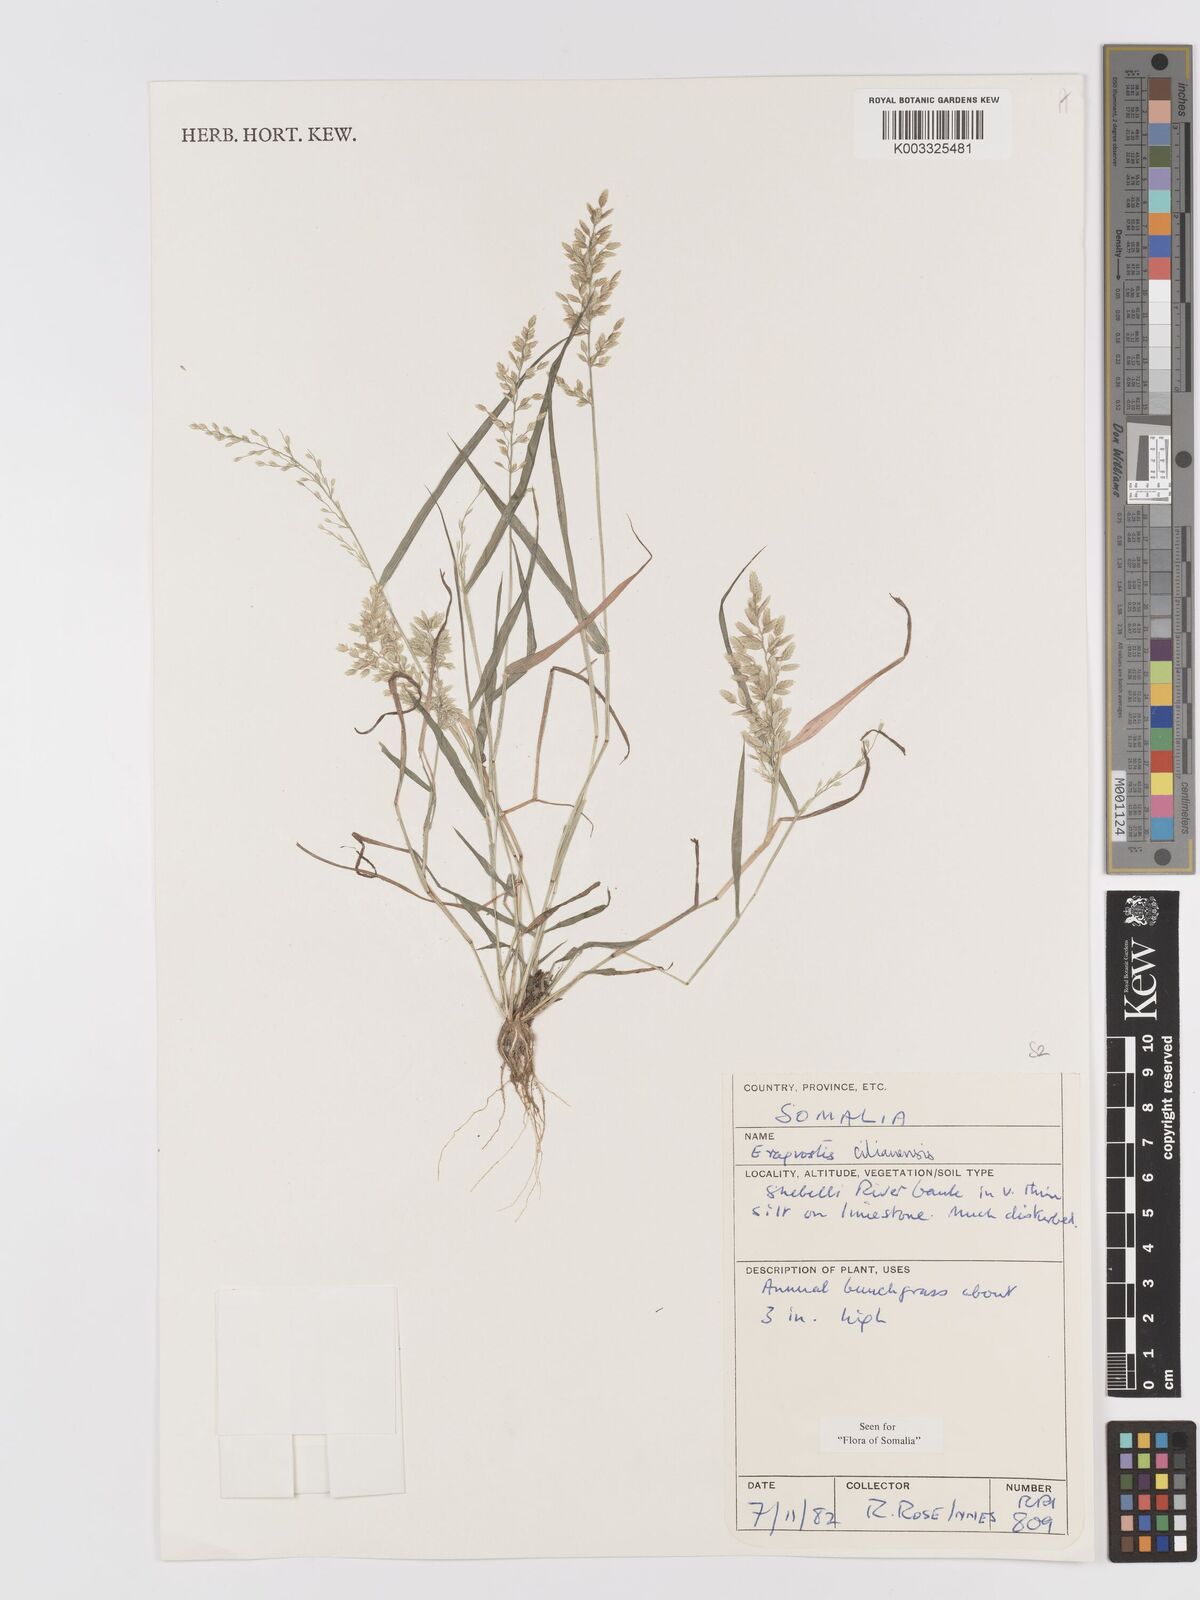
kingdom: Plantae
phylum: Tracheophyta
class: Liliopsida
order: Poales
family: Poaceae
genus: Eragrostis
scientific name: Eragrostis cilianensis
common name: Stinkgrass
